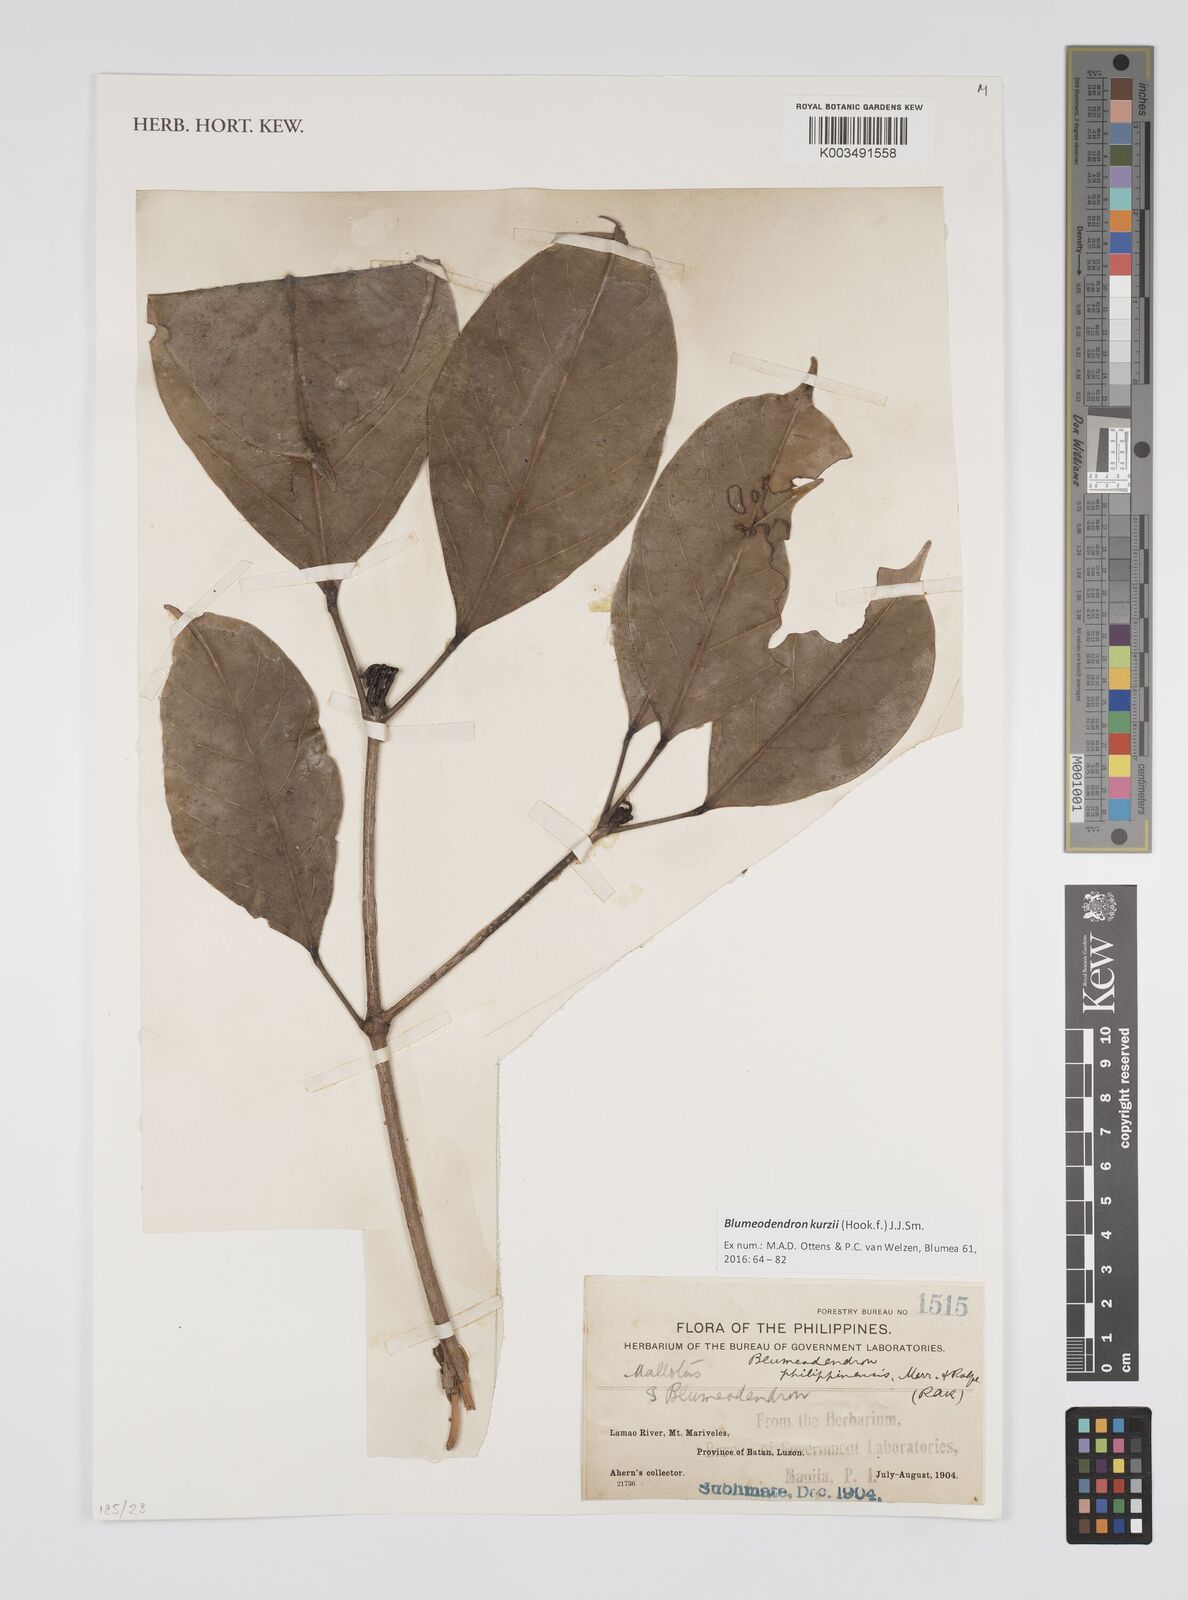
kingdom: Plantae
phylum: Tracheophyta
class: Magnoliopsida
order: Malpighiales
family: Euphorbiaceae
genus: Blumeodendron
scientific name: Blumeodendron kurzii
